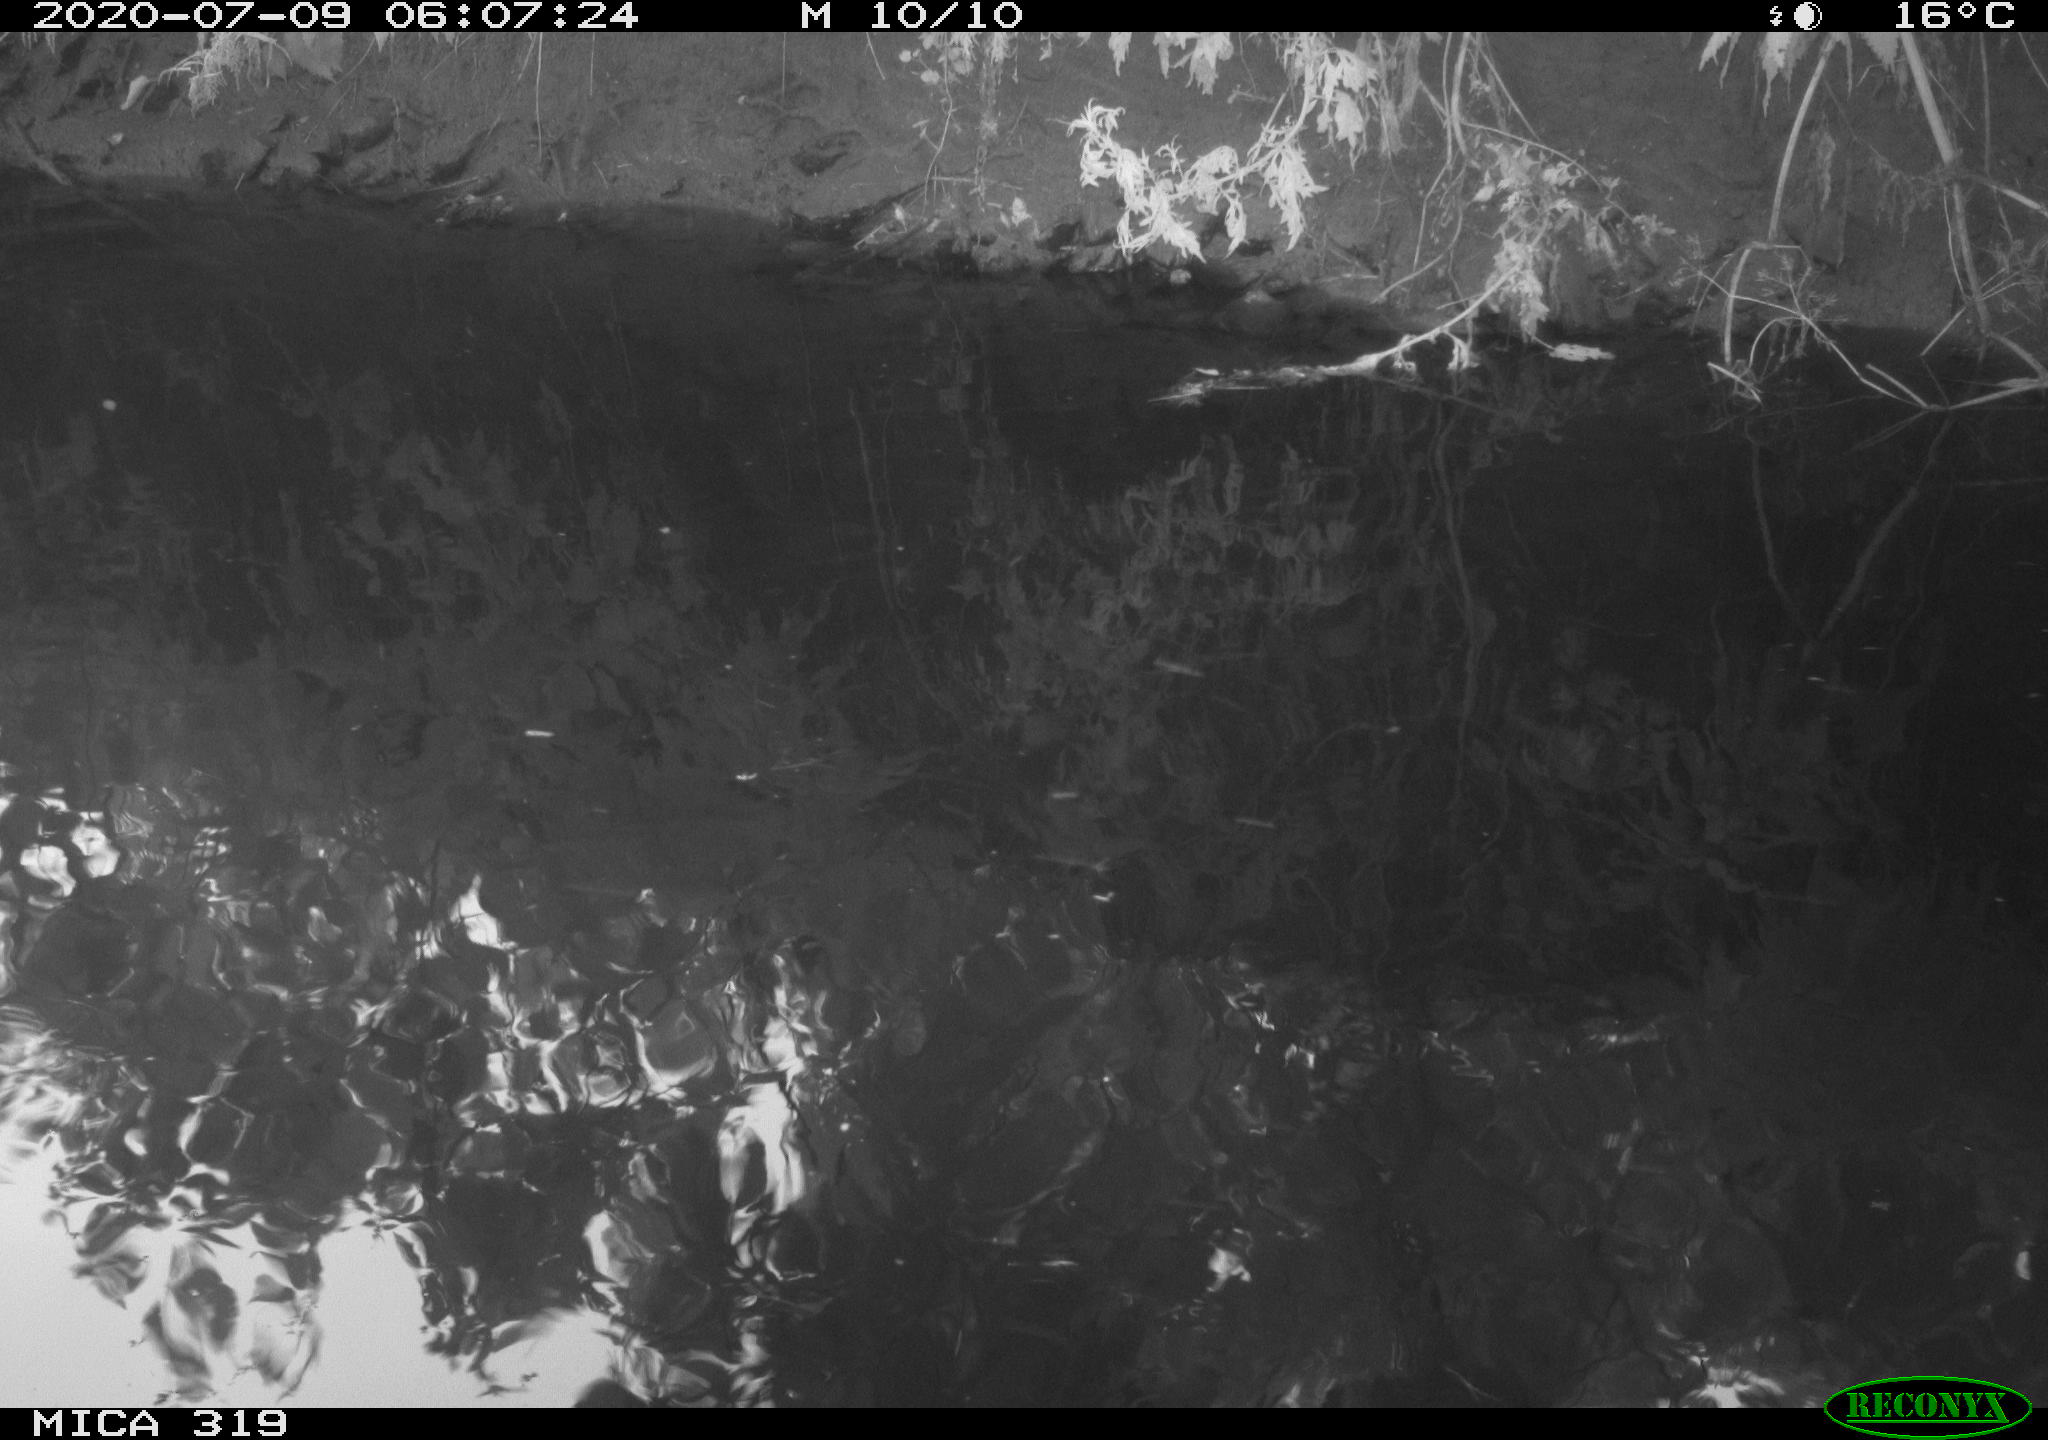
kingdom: Animalia
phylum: Chordata
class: Aves
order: Anseriformes
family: Anatidae
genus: Anas
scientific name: Anas platyrhynchos
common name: Mallard
